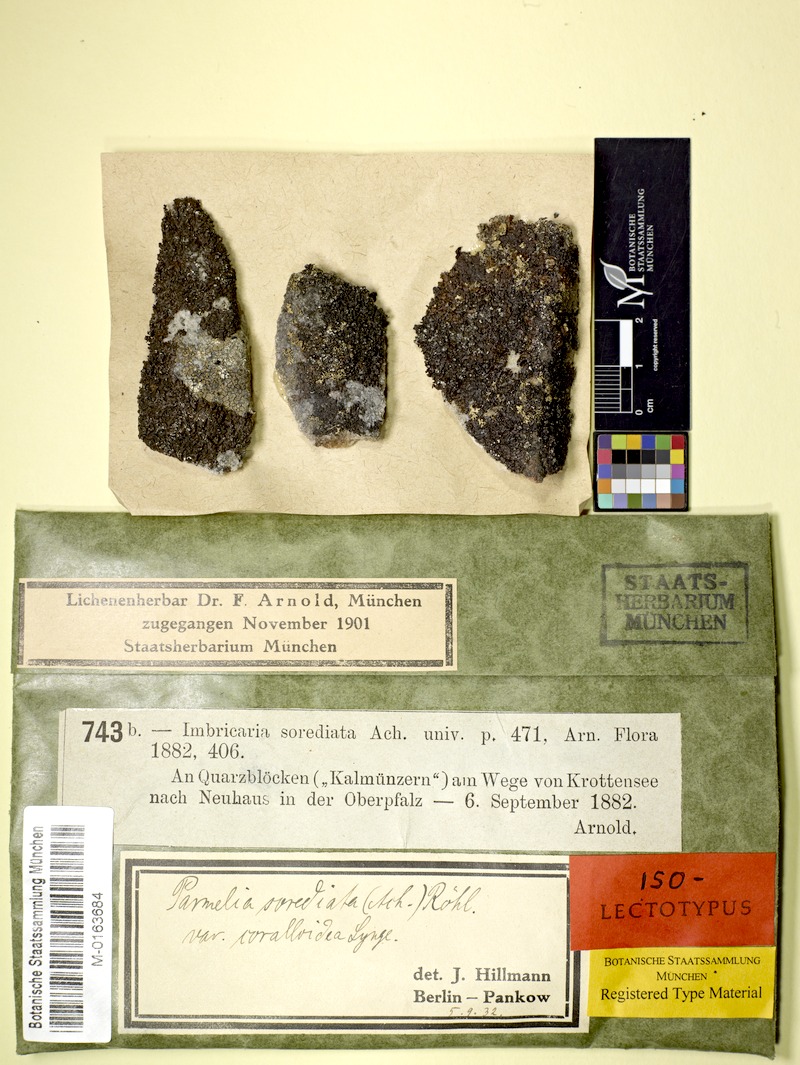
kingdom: Fungi
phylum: Ascomycota
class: Lecanoromycetes
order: Lecanorales
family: Parmeliaceae
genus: Montanelia
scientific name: Montanelia disjuncta
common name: Mealy camouflage lichen
